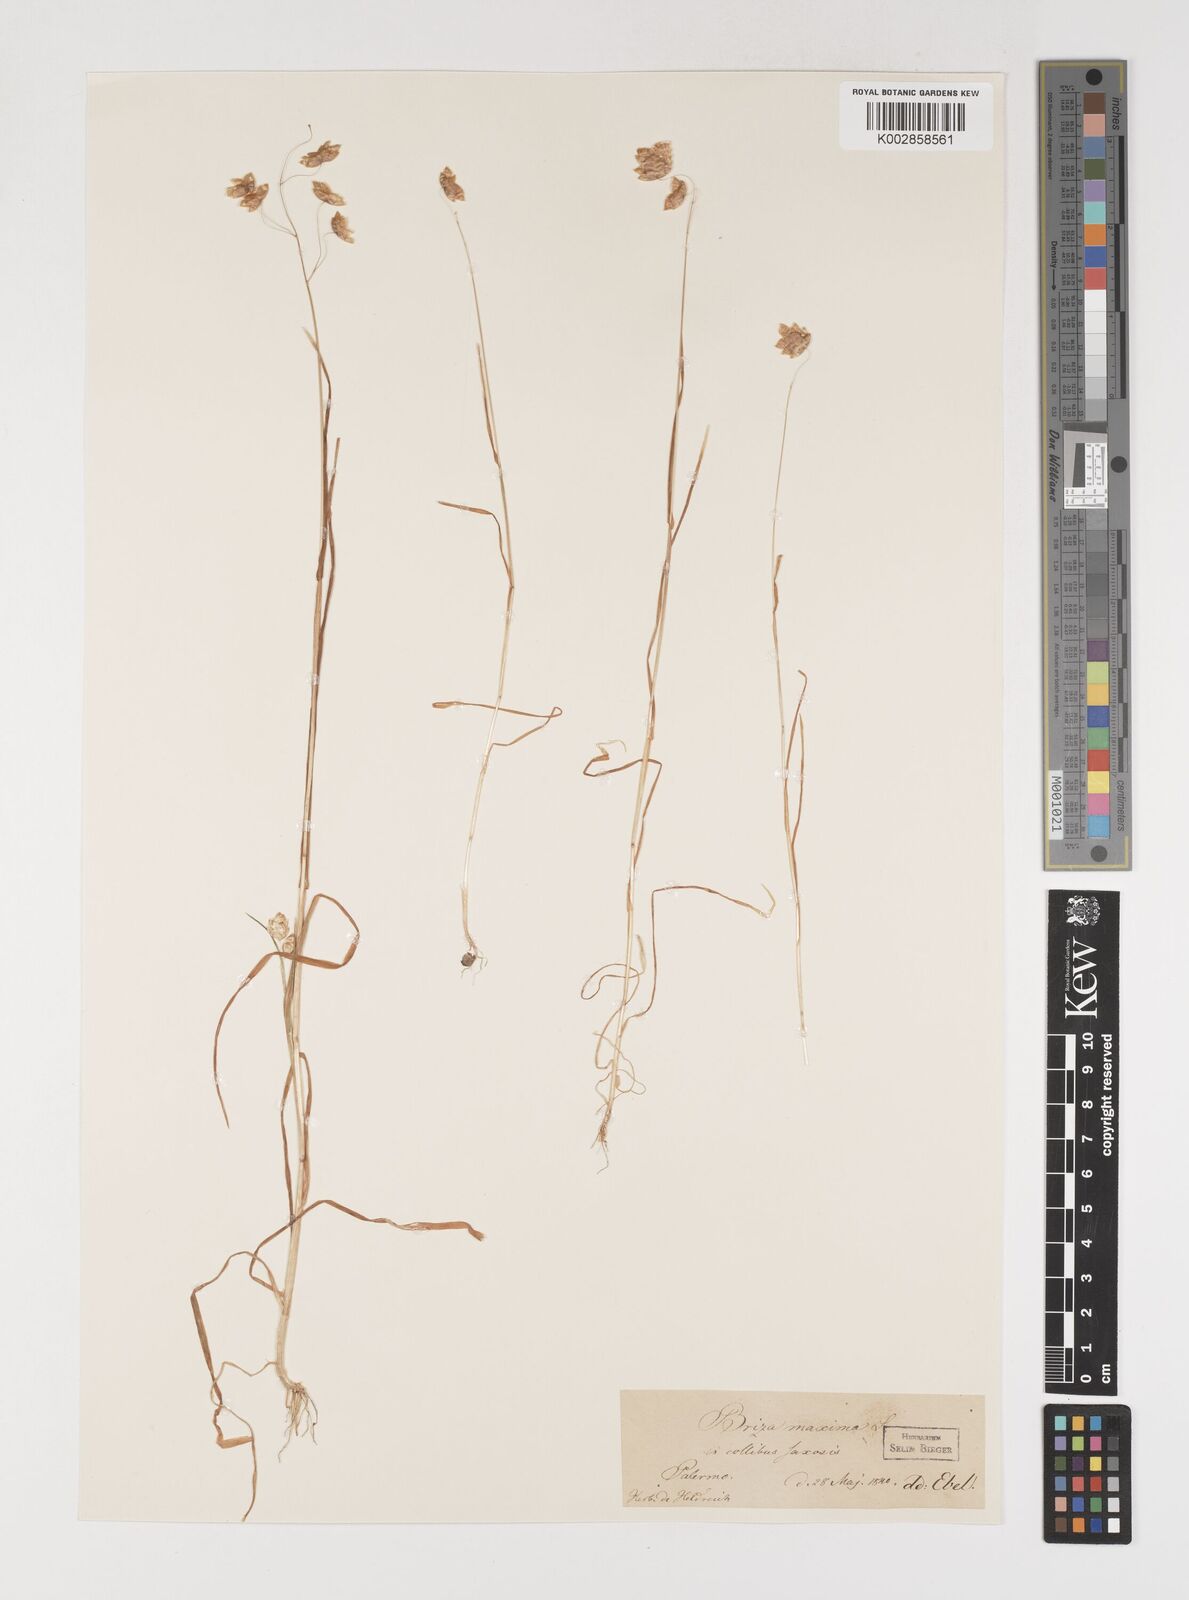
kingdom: Plantae
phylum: Tracheophyta
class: Liliopsida
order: Poales
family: Poaceae
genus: Briza
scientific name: Briza maxima
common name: Big quakinggrass
